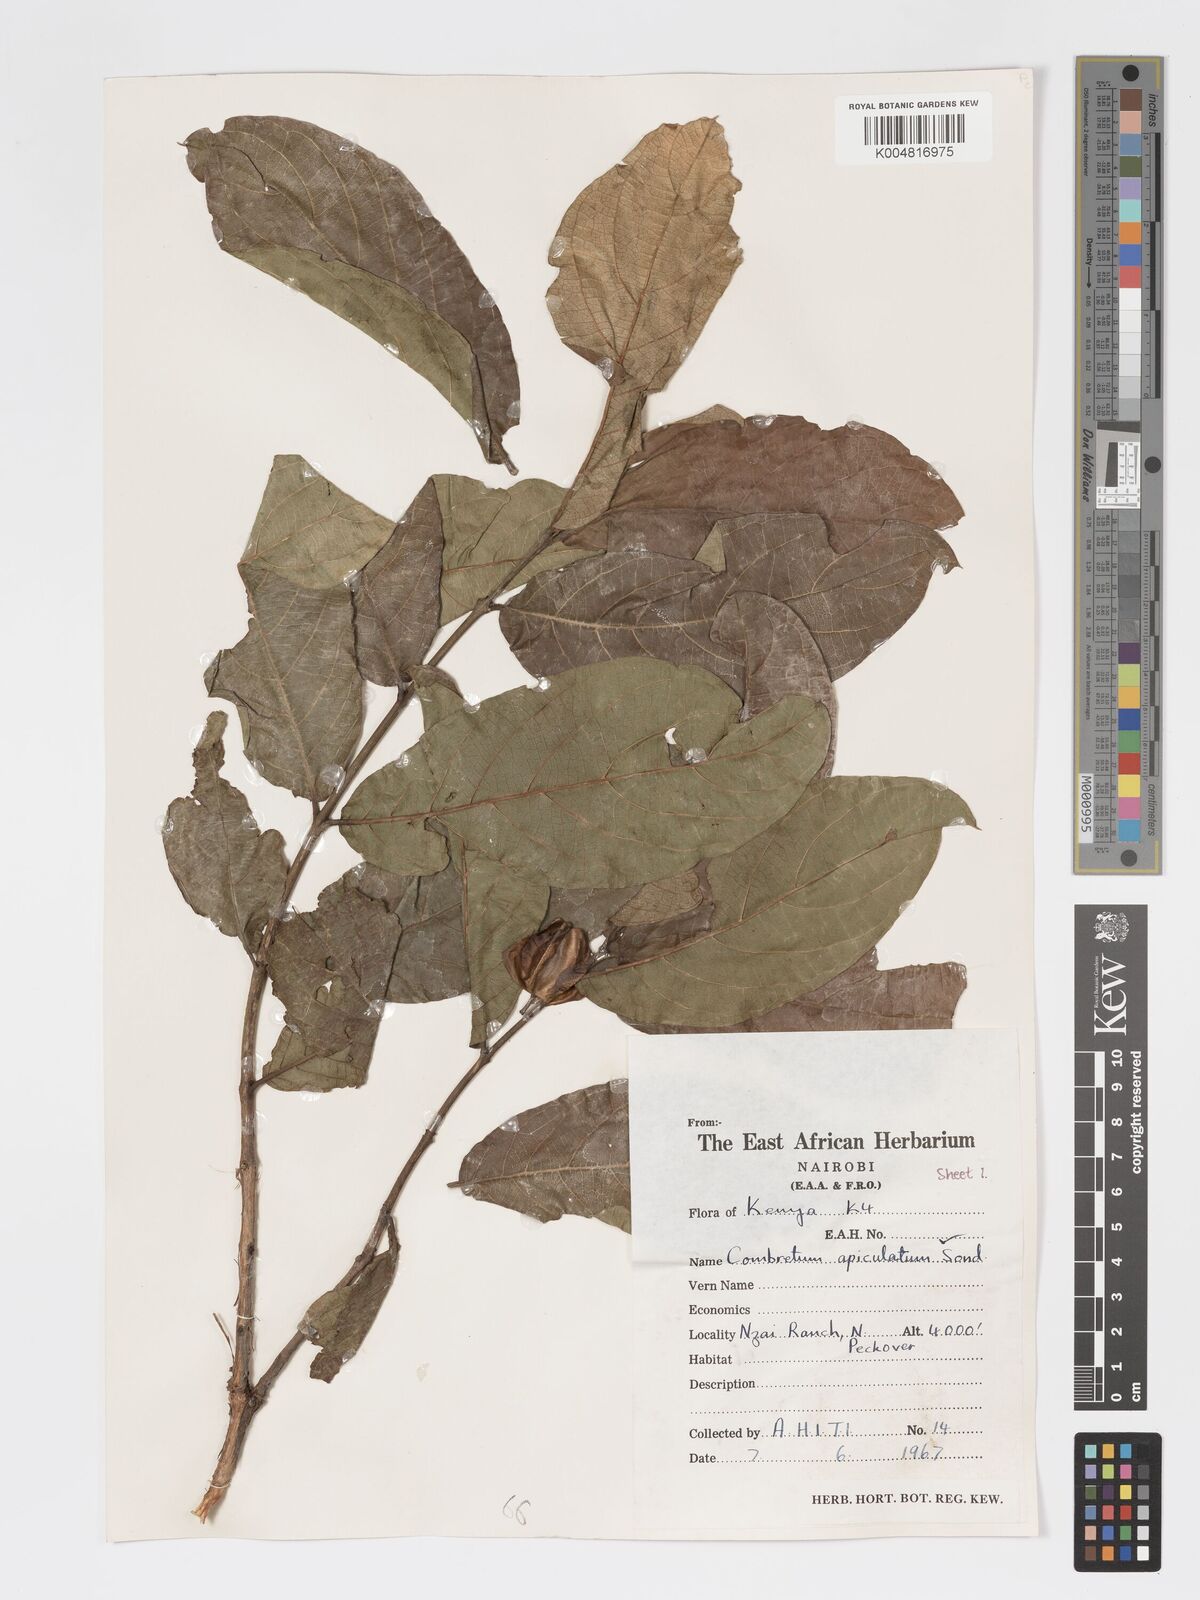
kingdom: Plantae
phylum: Tracheophyta
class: Magnoliopsida
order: Myrtales
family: Combretaceae
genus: Combretum
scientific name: Combretum apiculatum
